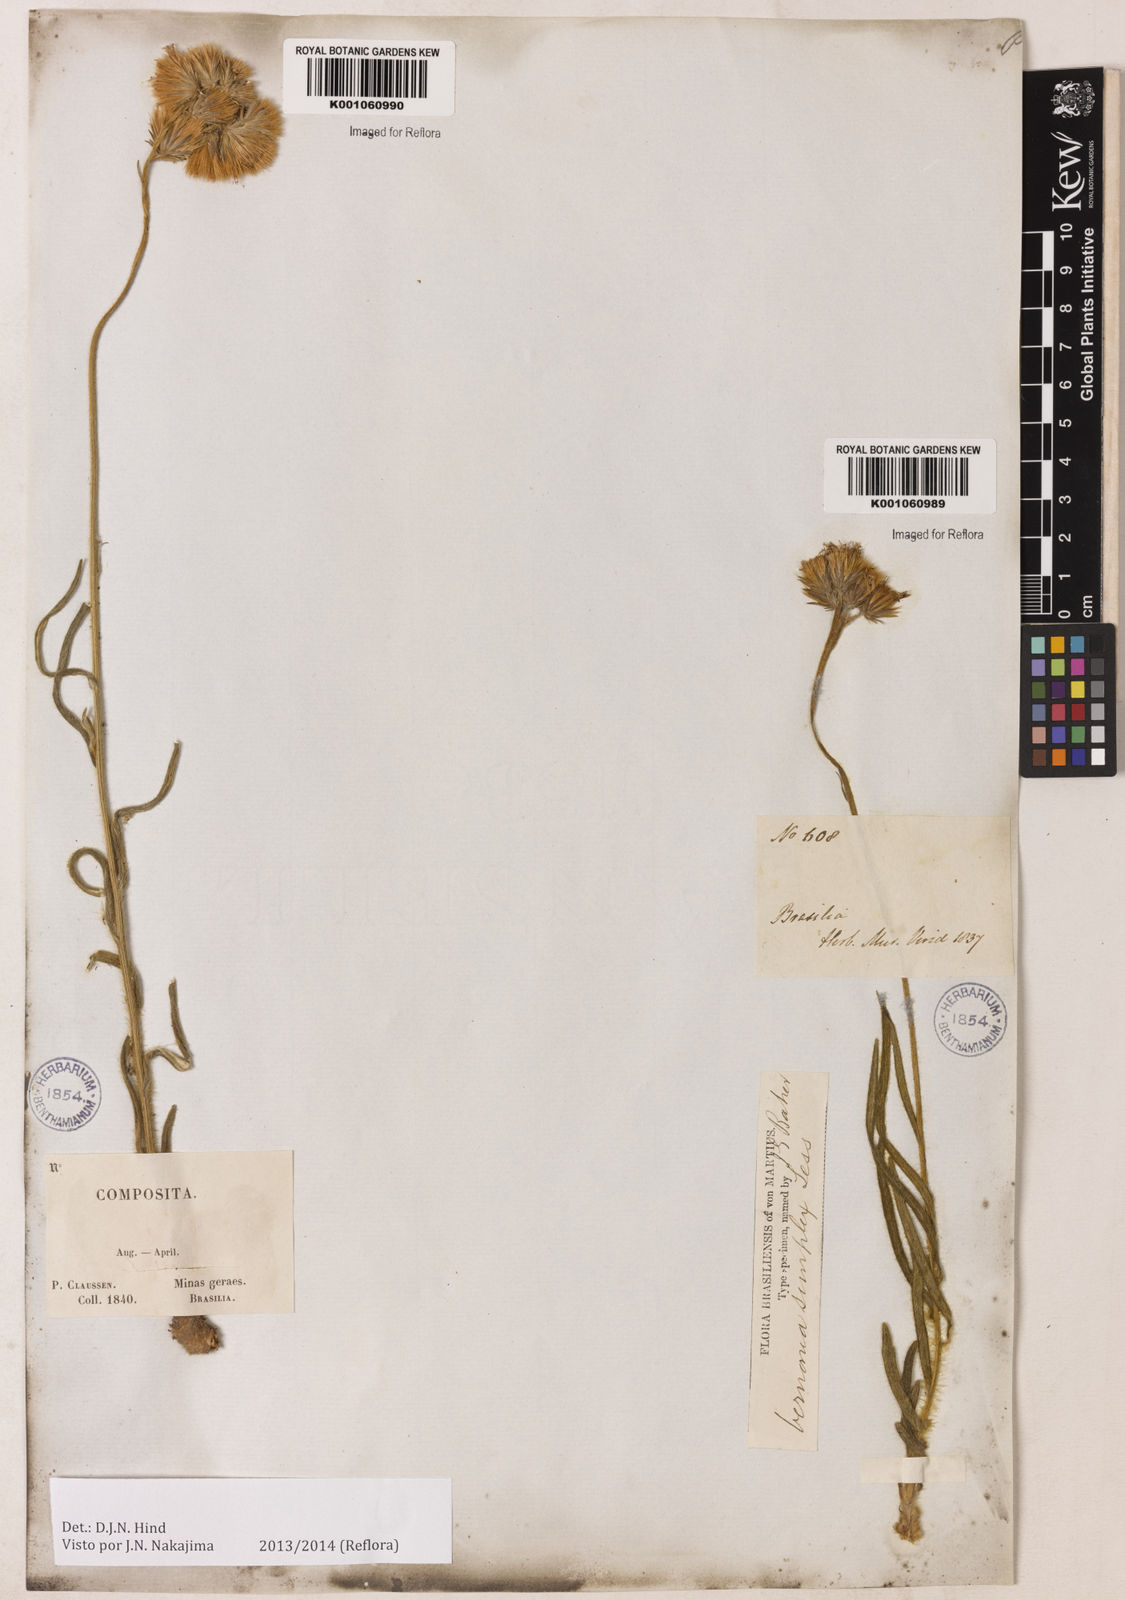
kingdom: Plantae
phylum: Tracheophyta
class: Magnoliopsida
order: Asterales
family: Asteraceae
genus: Chrysolaena
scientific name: Chrysolaena simplex
